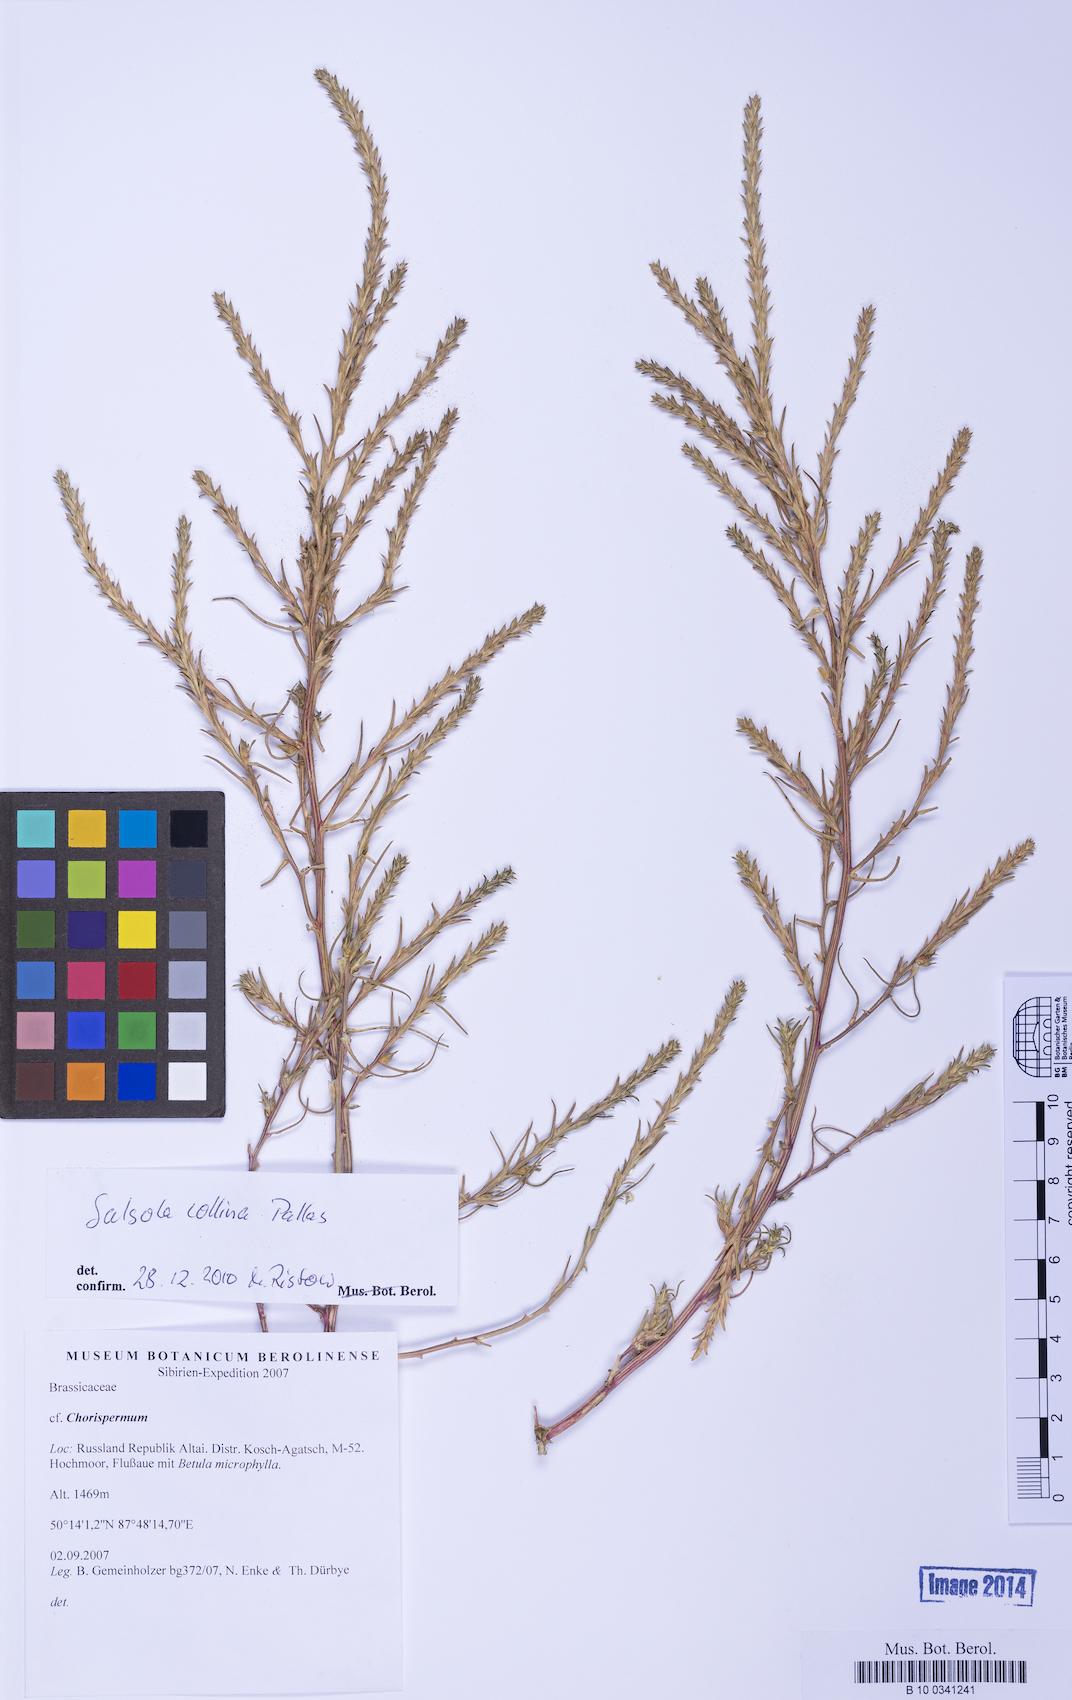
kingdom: Plantae
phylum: Tracheophyta
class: Magnoliopsida
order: Caryophyllales
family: Amaranthaceae
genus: Salsola
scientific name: Salsola collina
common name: Tumbleweed
